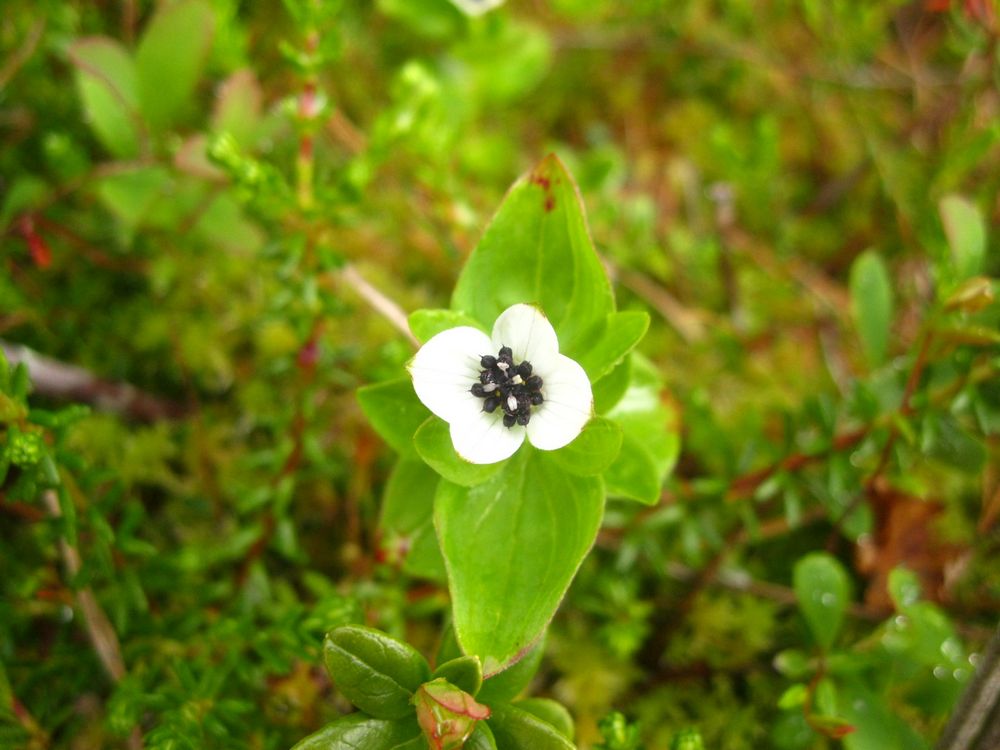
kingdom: Plantae
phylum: Tracheophyta
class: Magnoliopsida
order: Cornales
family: Cornaceae
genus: Cornus
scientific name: Cornus suecica
